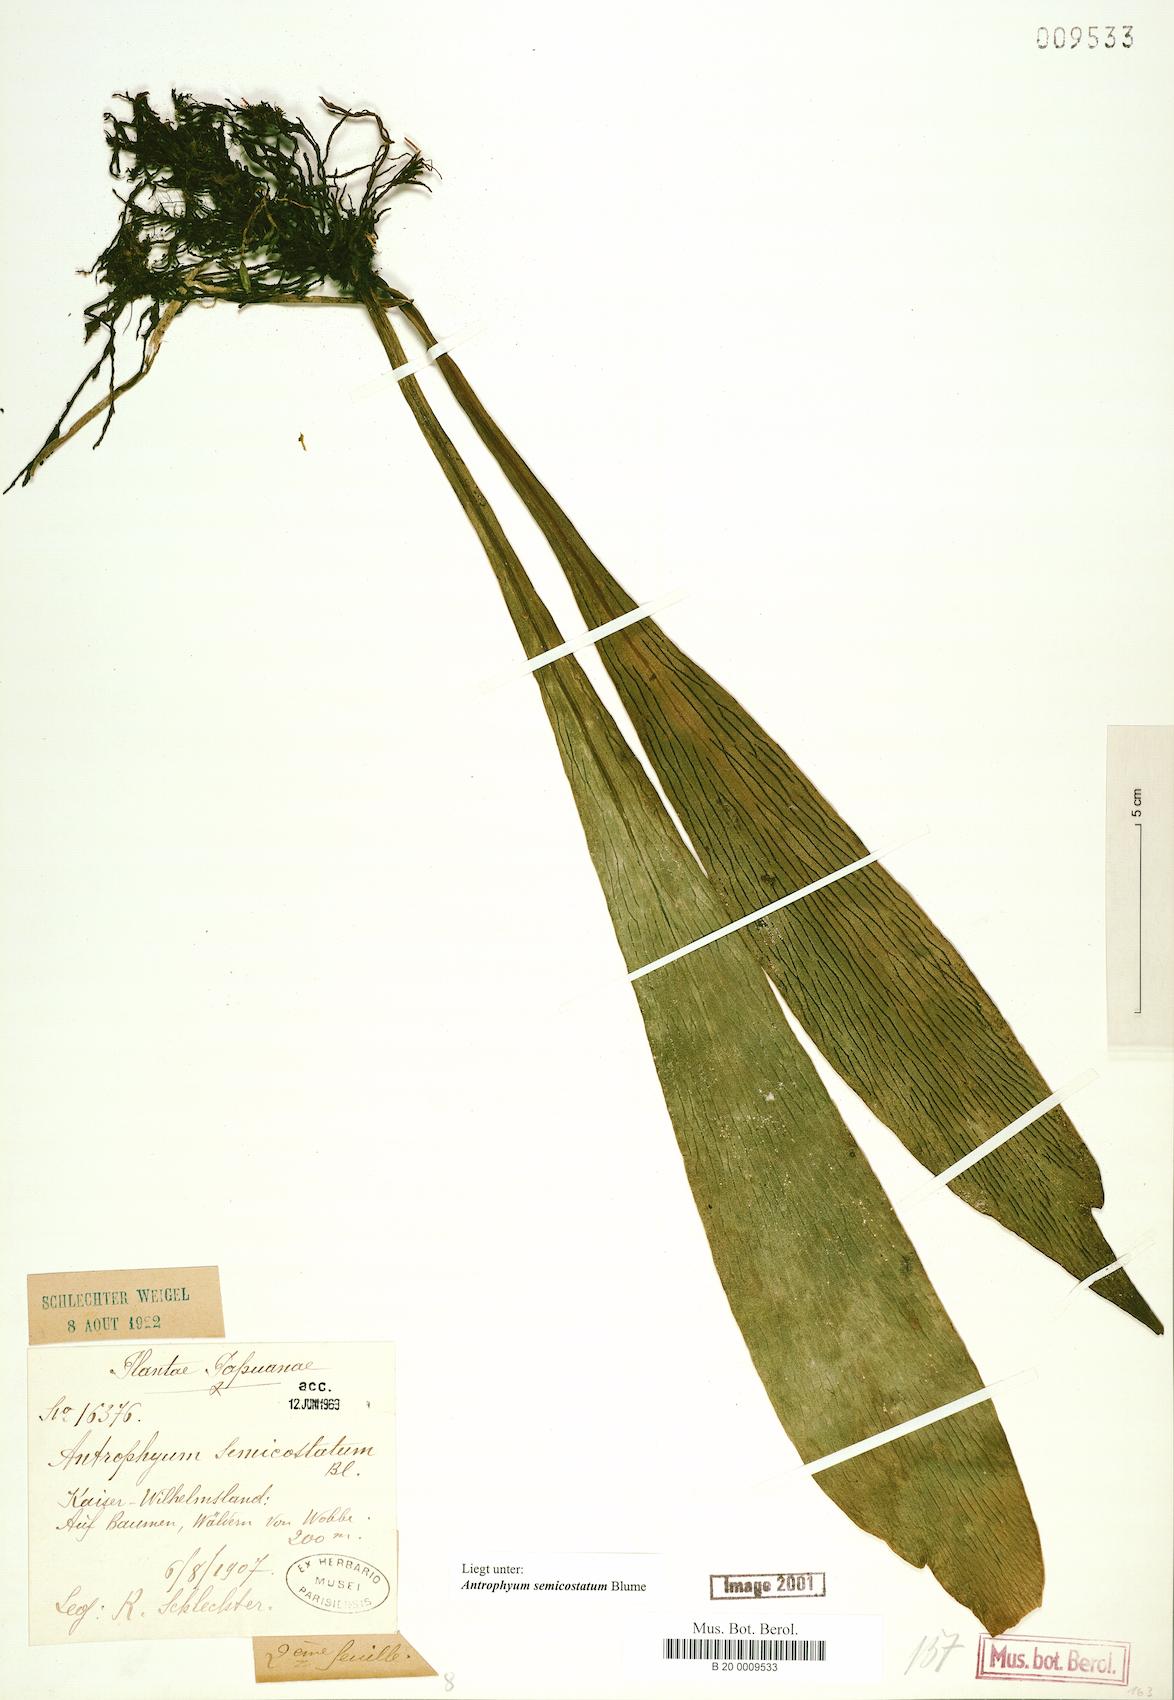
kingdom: Plantae
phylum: Tracheophyta
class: Polypodiopsida
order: Polypodiales
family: Pteridaceae
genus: Antrophyum
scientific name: Antrophyum semicostatum
